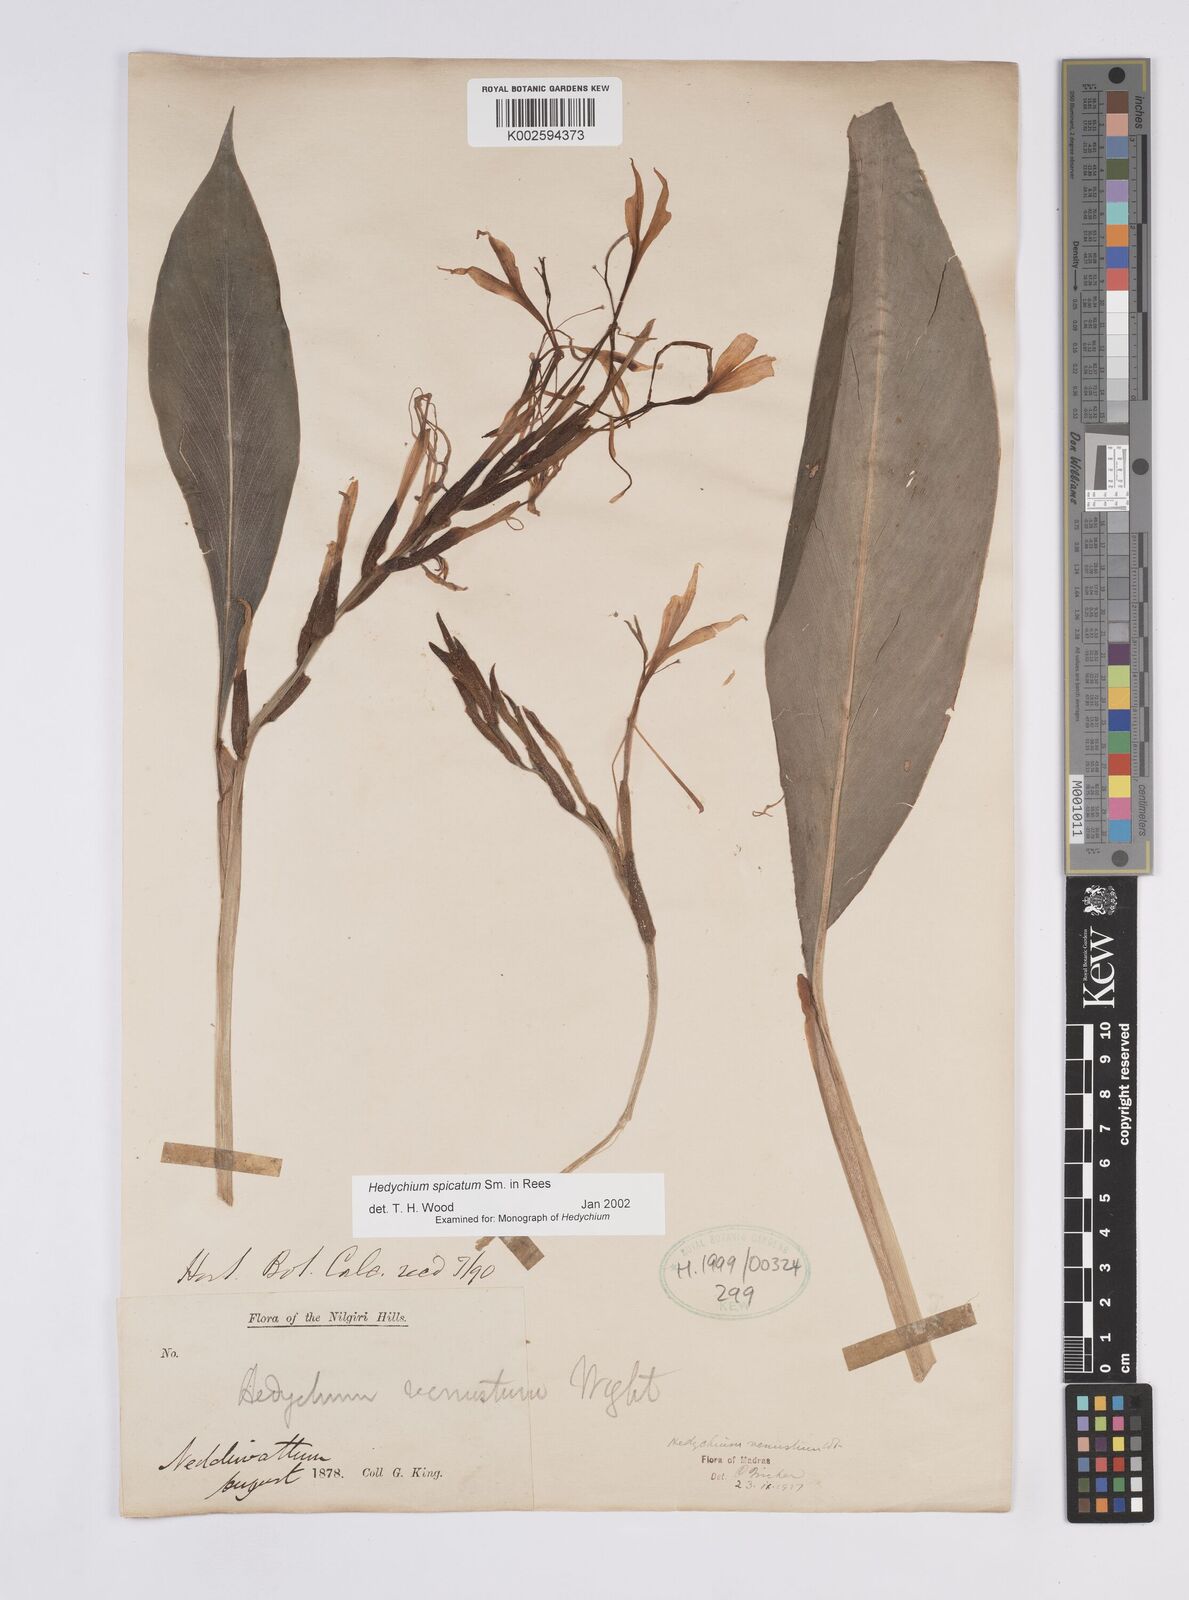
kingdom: Plantae
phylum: Tracheophyta
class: Liliopsida
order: Zingiberales
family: Zingiberaceae
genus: Hedychium
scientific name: Hedychium spicatum
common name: Spiked ginger-lily
